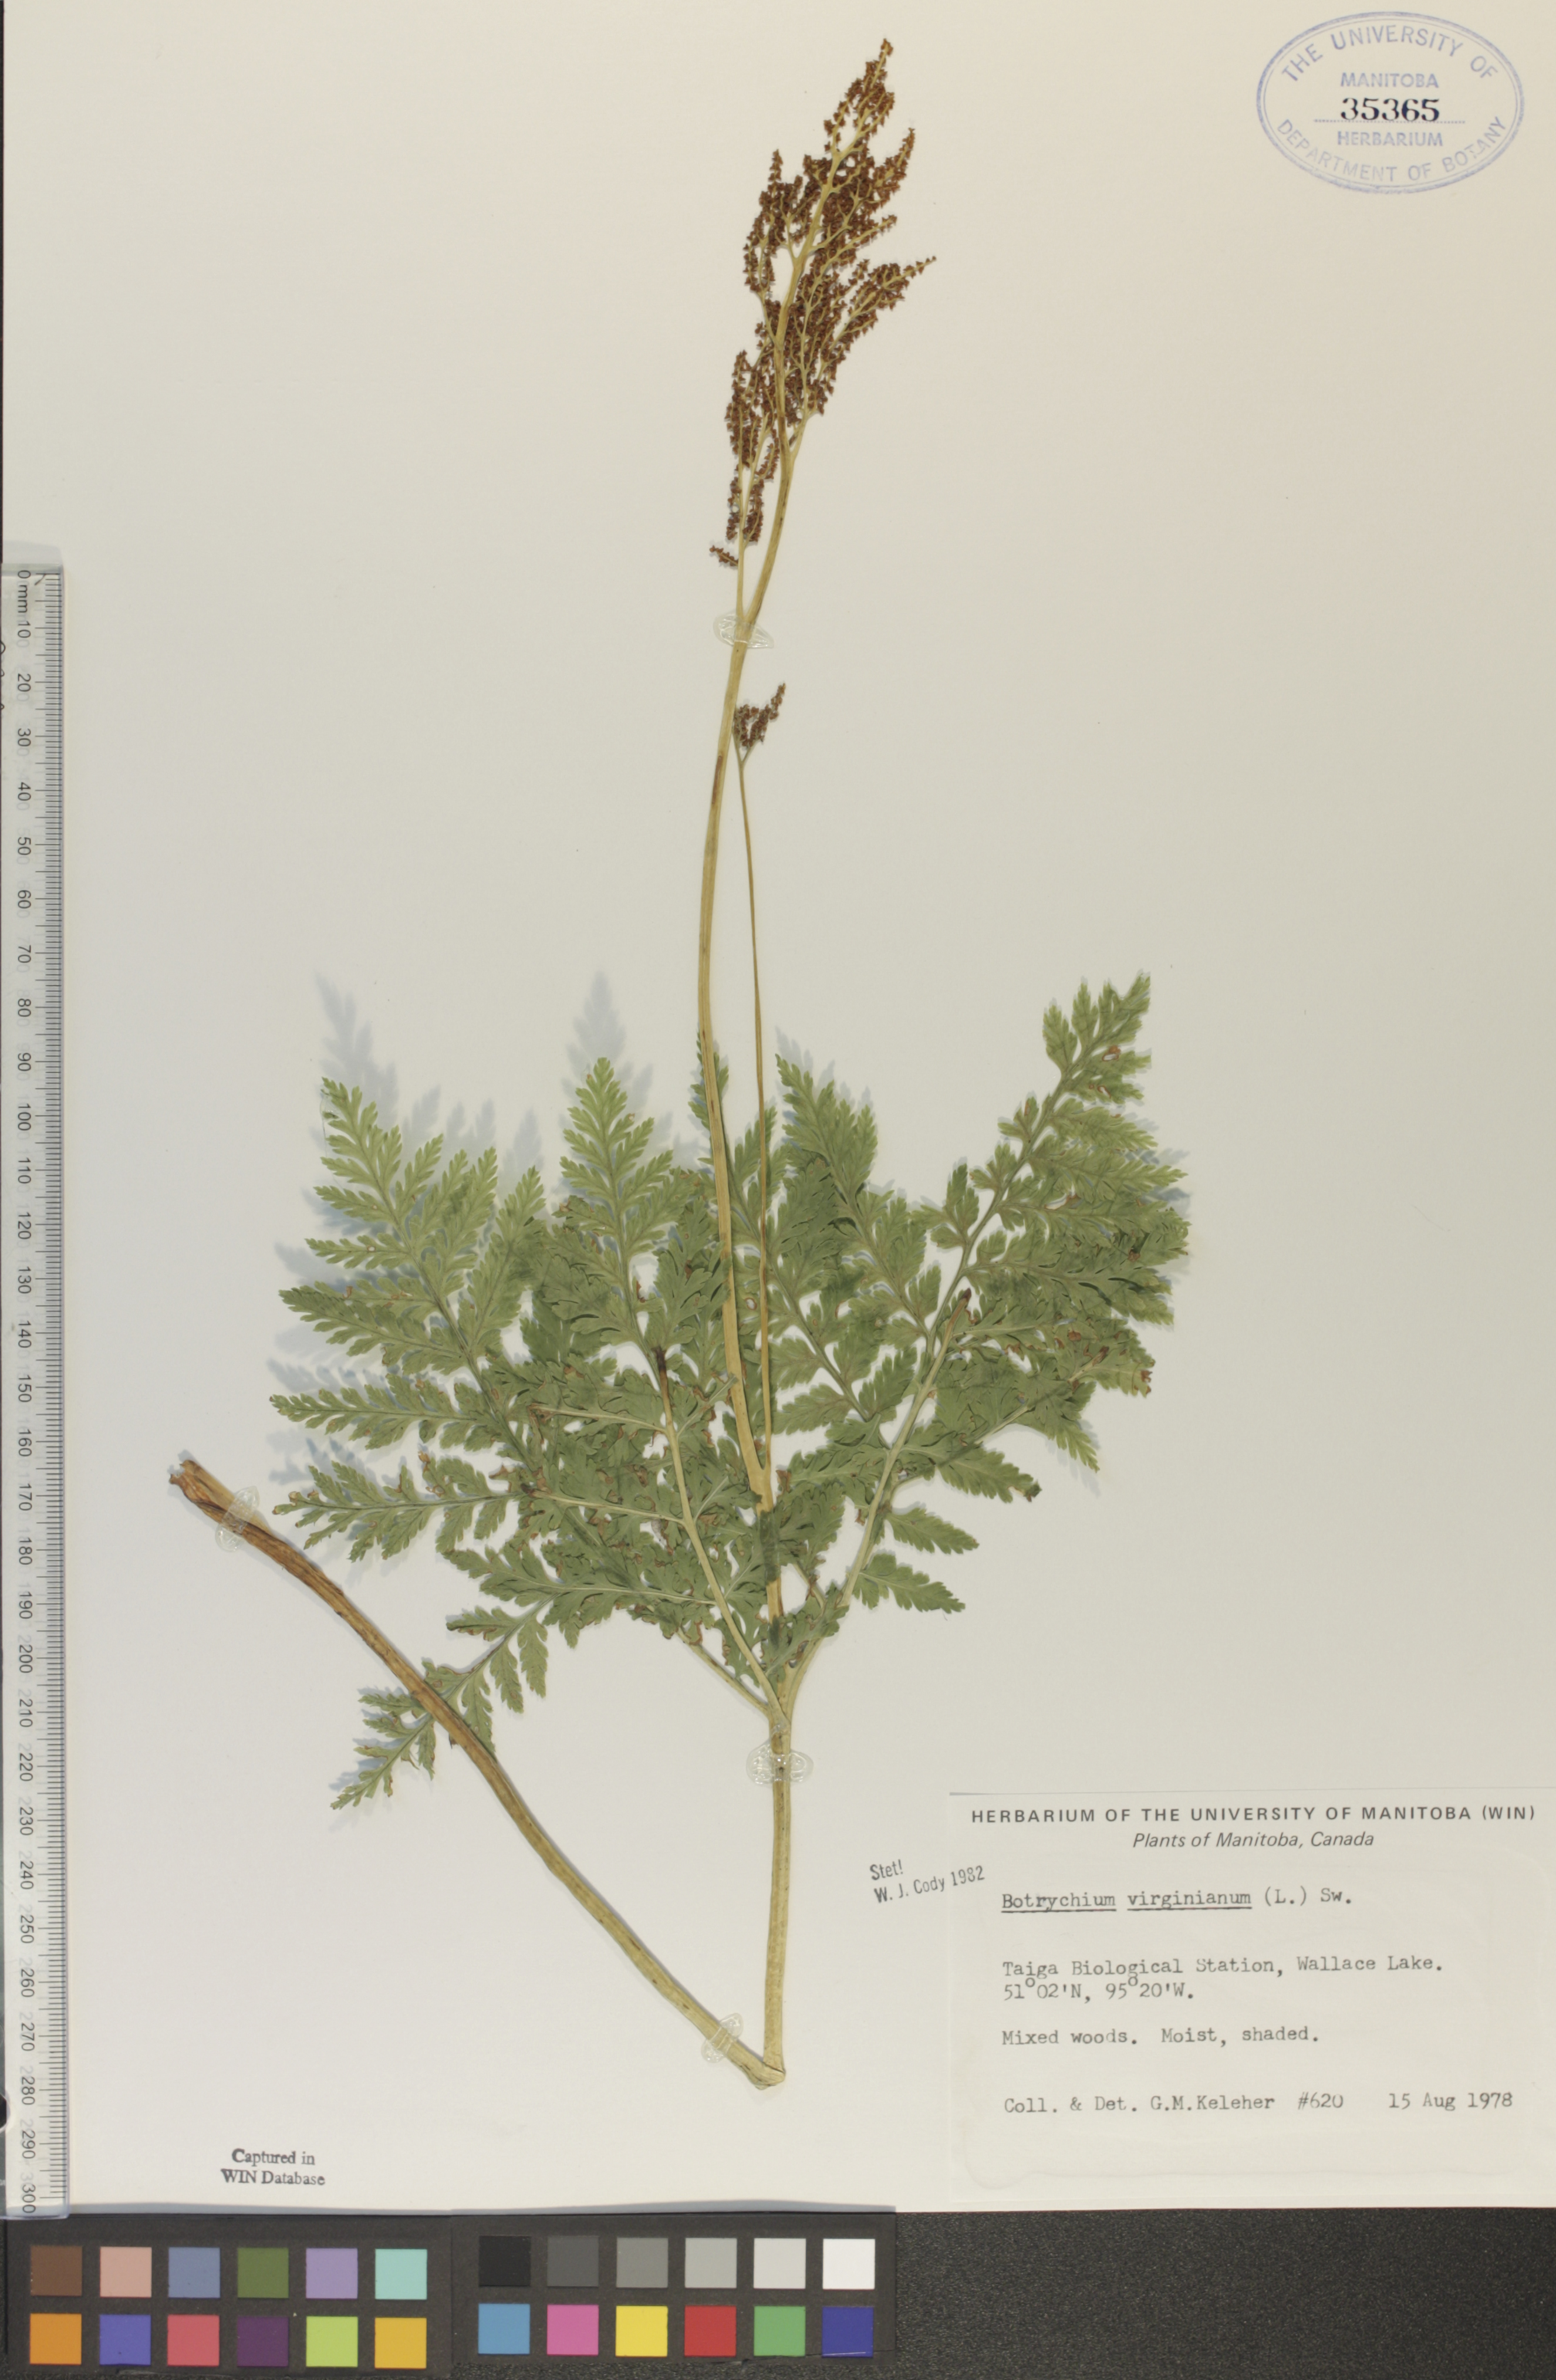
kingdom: Plantae
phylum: Tracheophyta
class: Polypodiopsida
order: Ophioglossales
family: Ophioglossaceae
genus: Botrypus
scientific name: Botrypus virginianus
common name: Common grapefern
